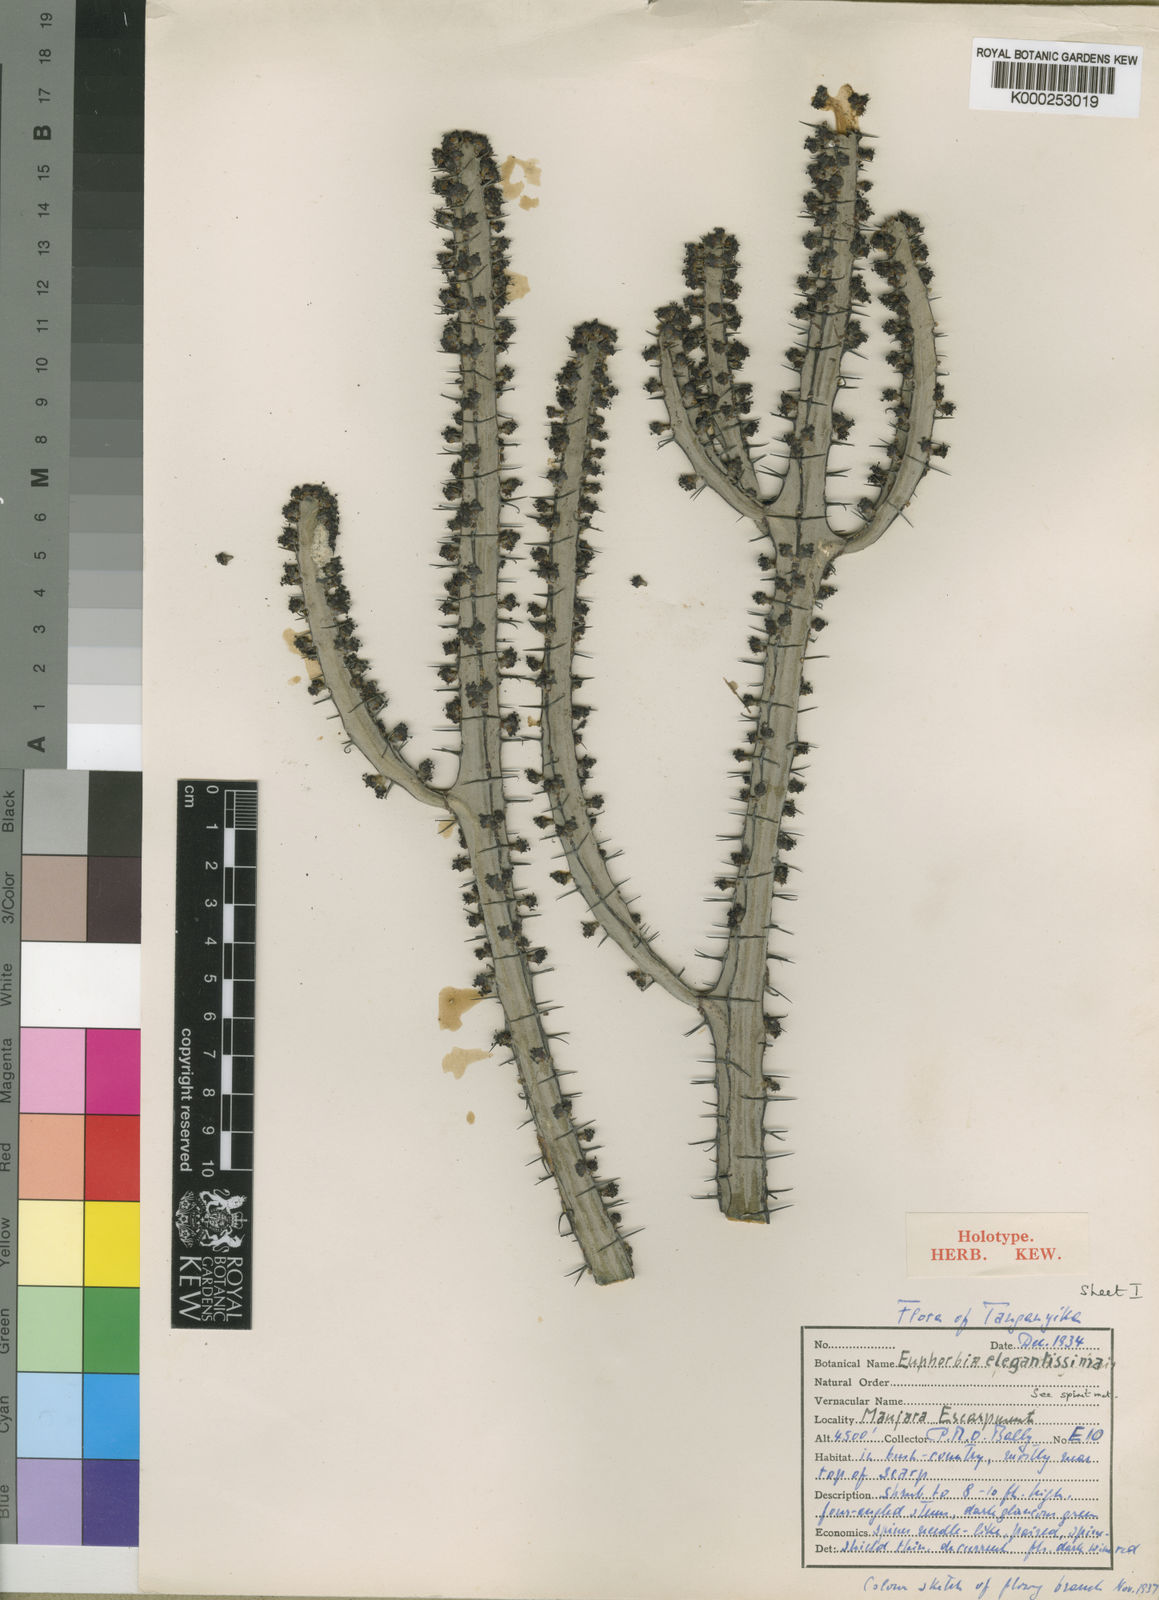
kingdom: Plantae
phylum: Tracheophyta
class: Magnoliopsida
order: Malpighiales
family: Euphorbiaceae
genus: Euphorbia
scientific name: Euphorbia elegantissima
